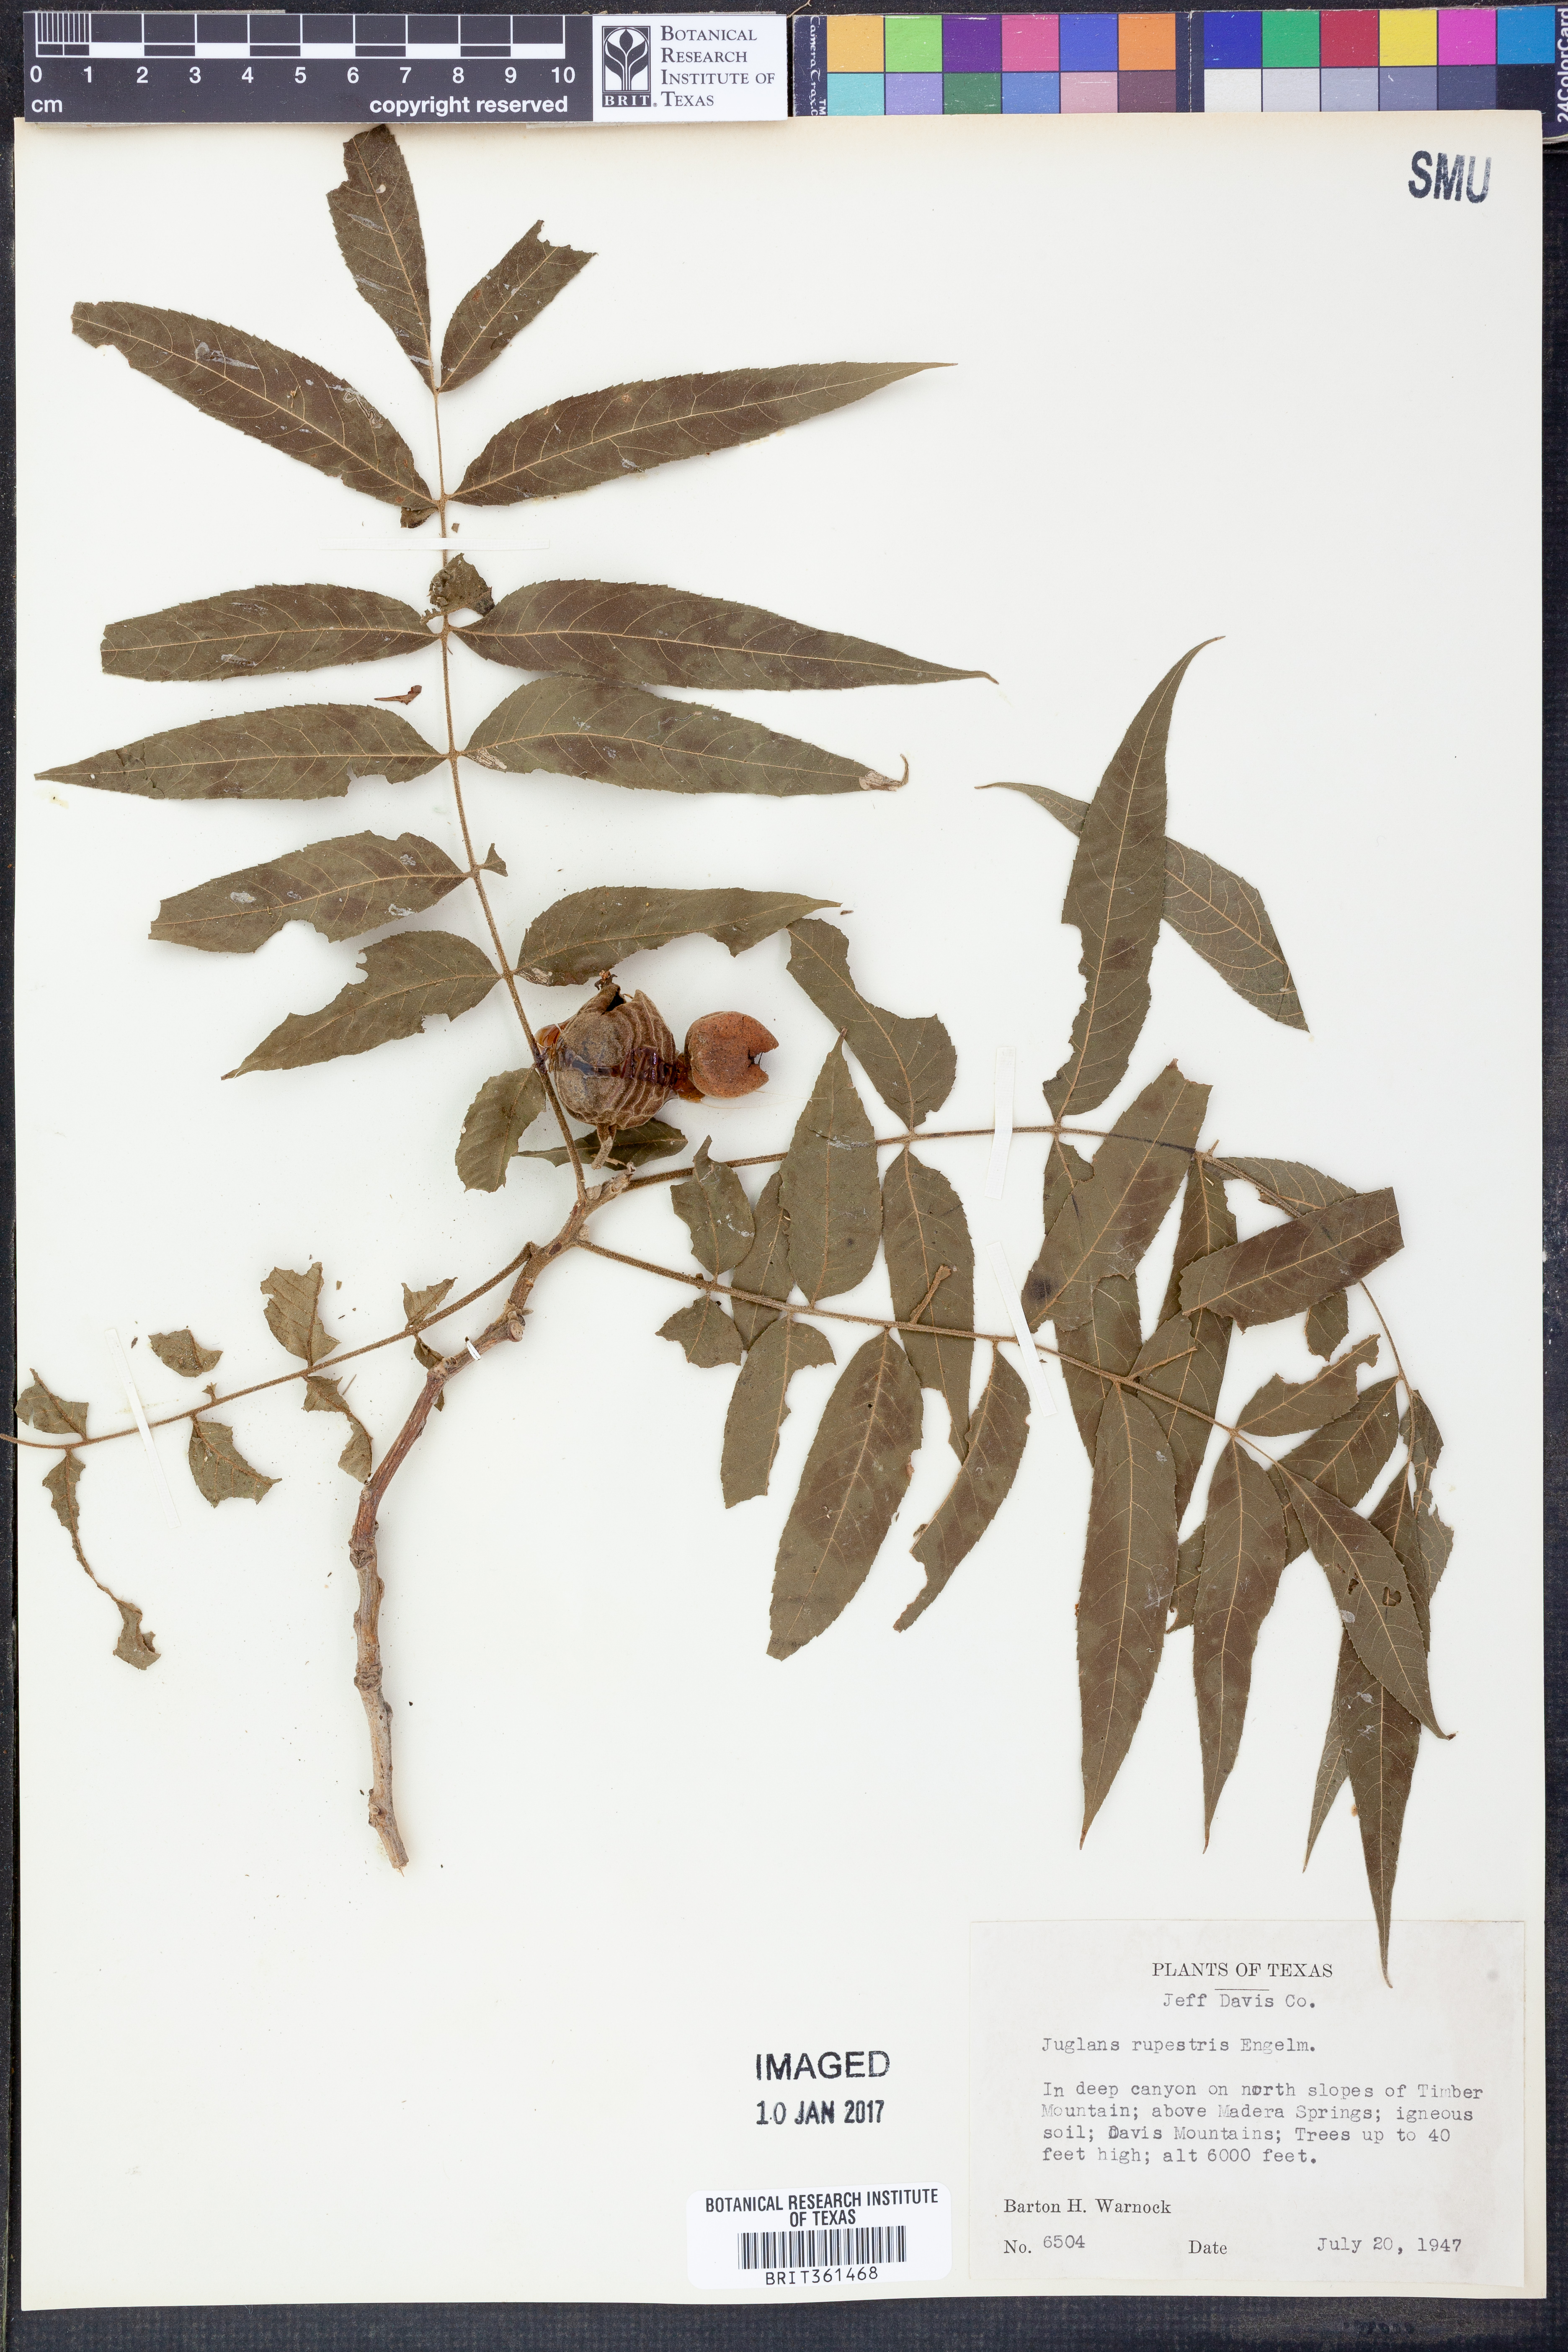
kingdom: Plantae
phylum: Tracheophyta
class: Magnoliopsida
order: Fagales
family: Juglandaceae
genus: Juglans
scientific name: Juglans microcarpa
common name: Texas walnut
